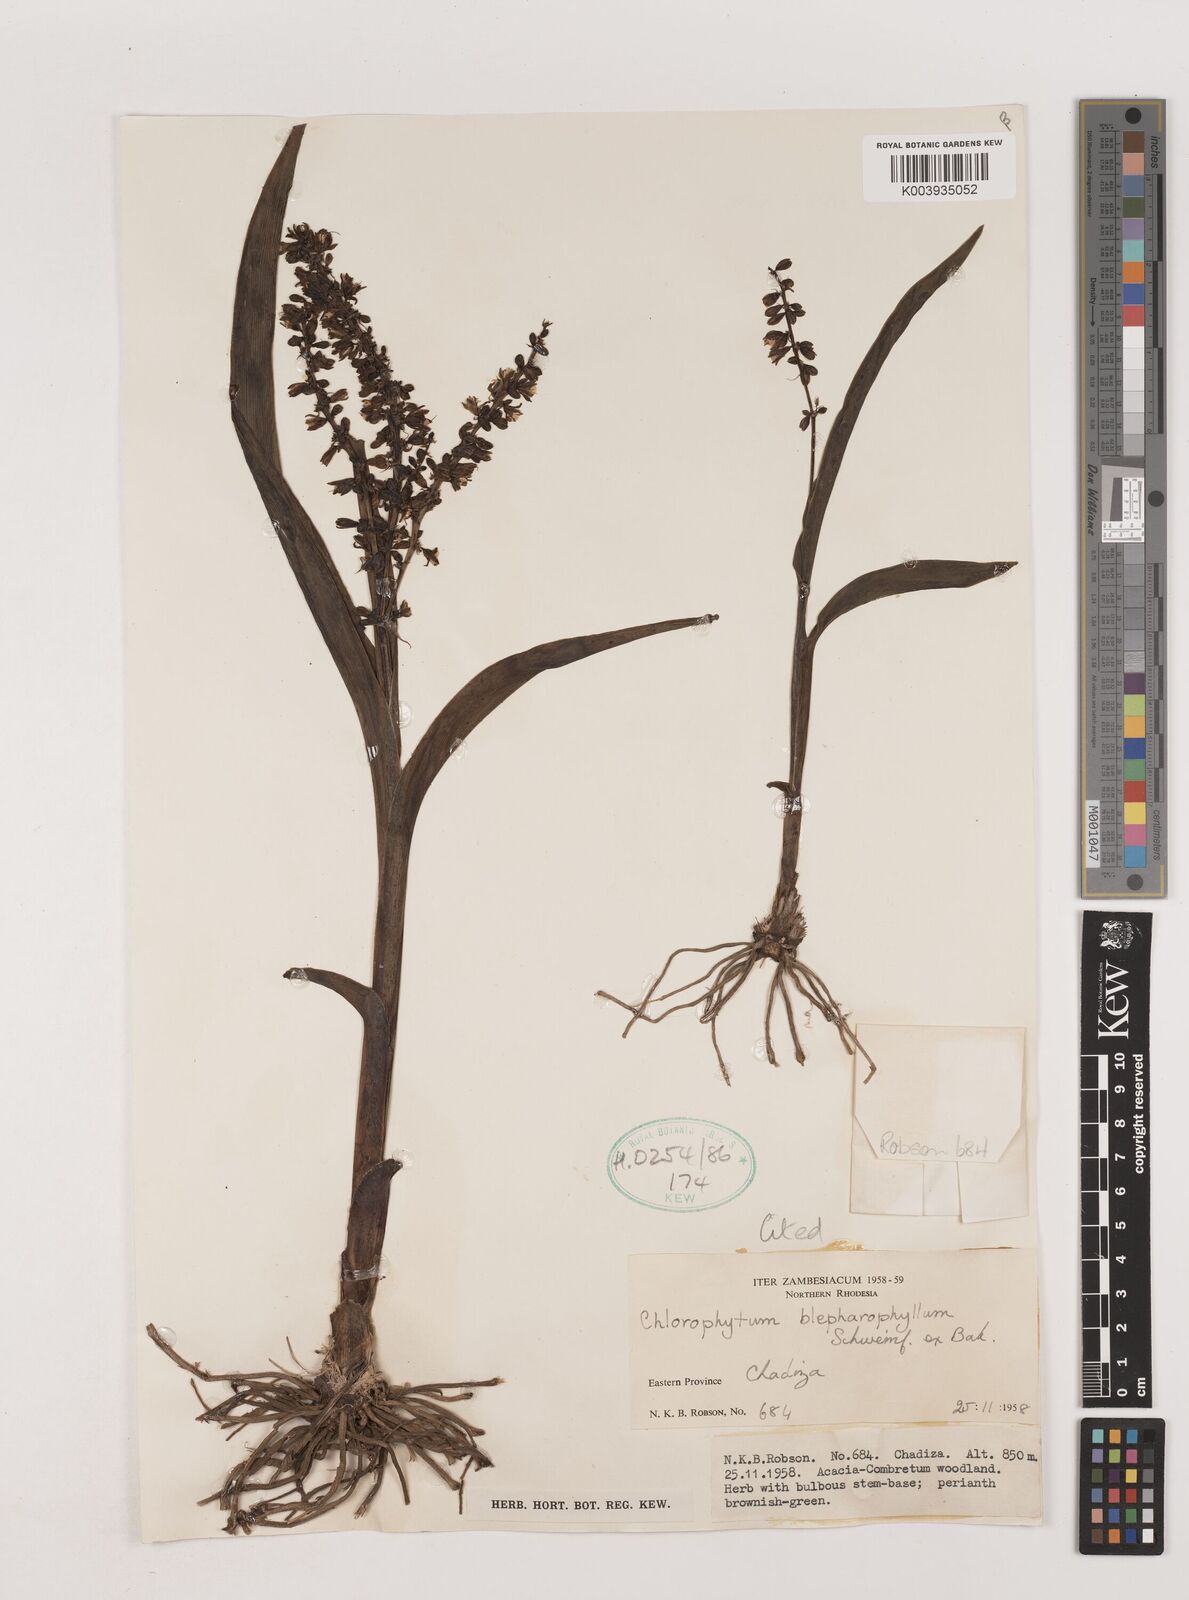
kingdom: Plantae
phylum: Tracheophyta
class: Liliopsida
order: Asparagales
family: Asparagaceae
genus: Chlorophytum
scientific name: Chlorophytum blepharophyllum
